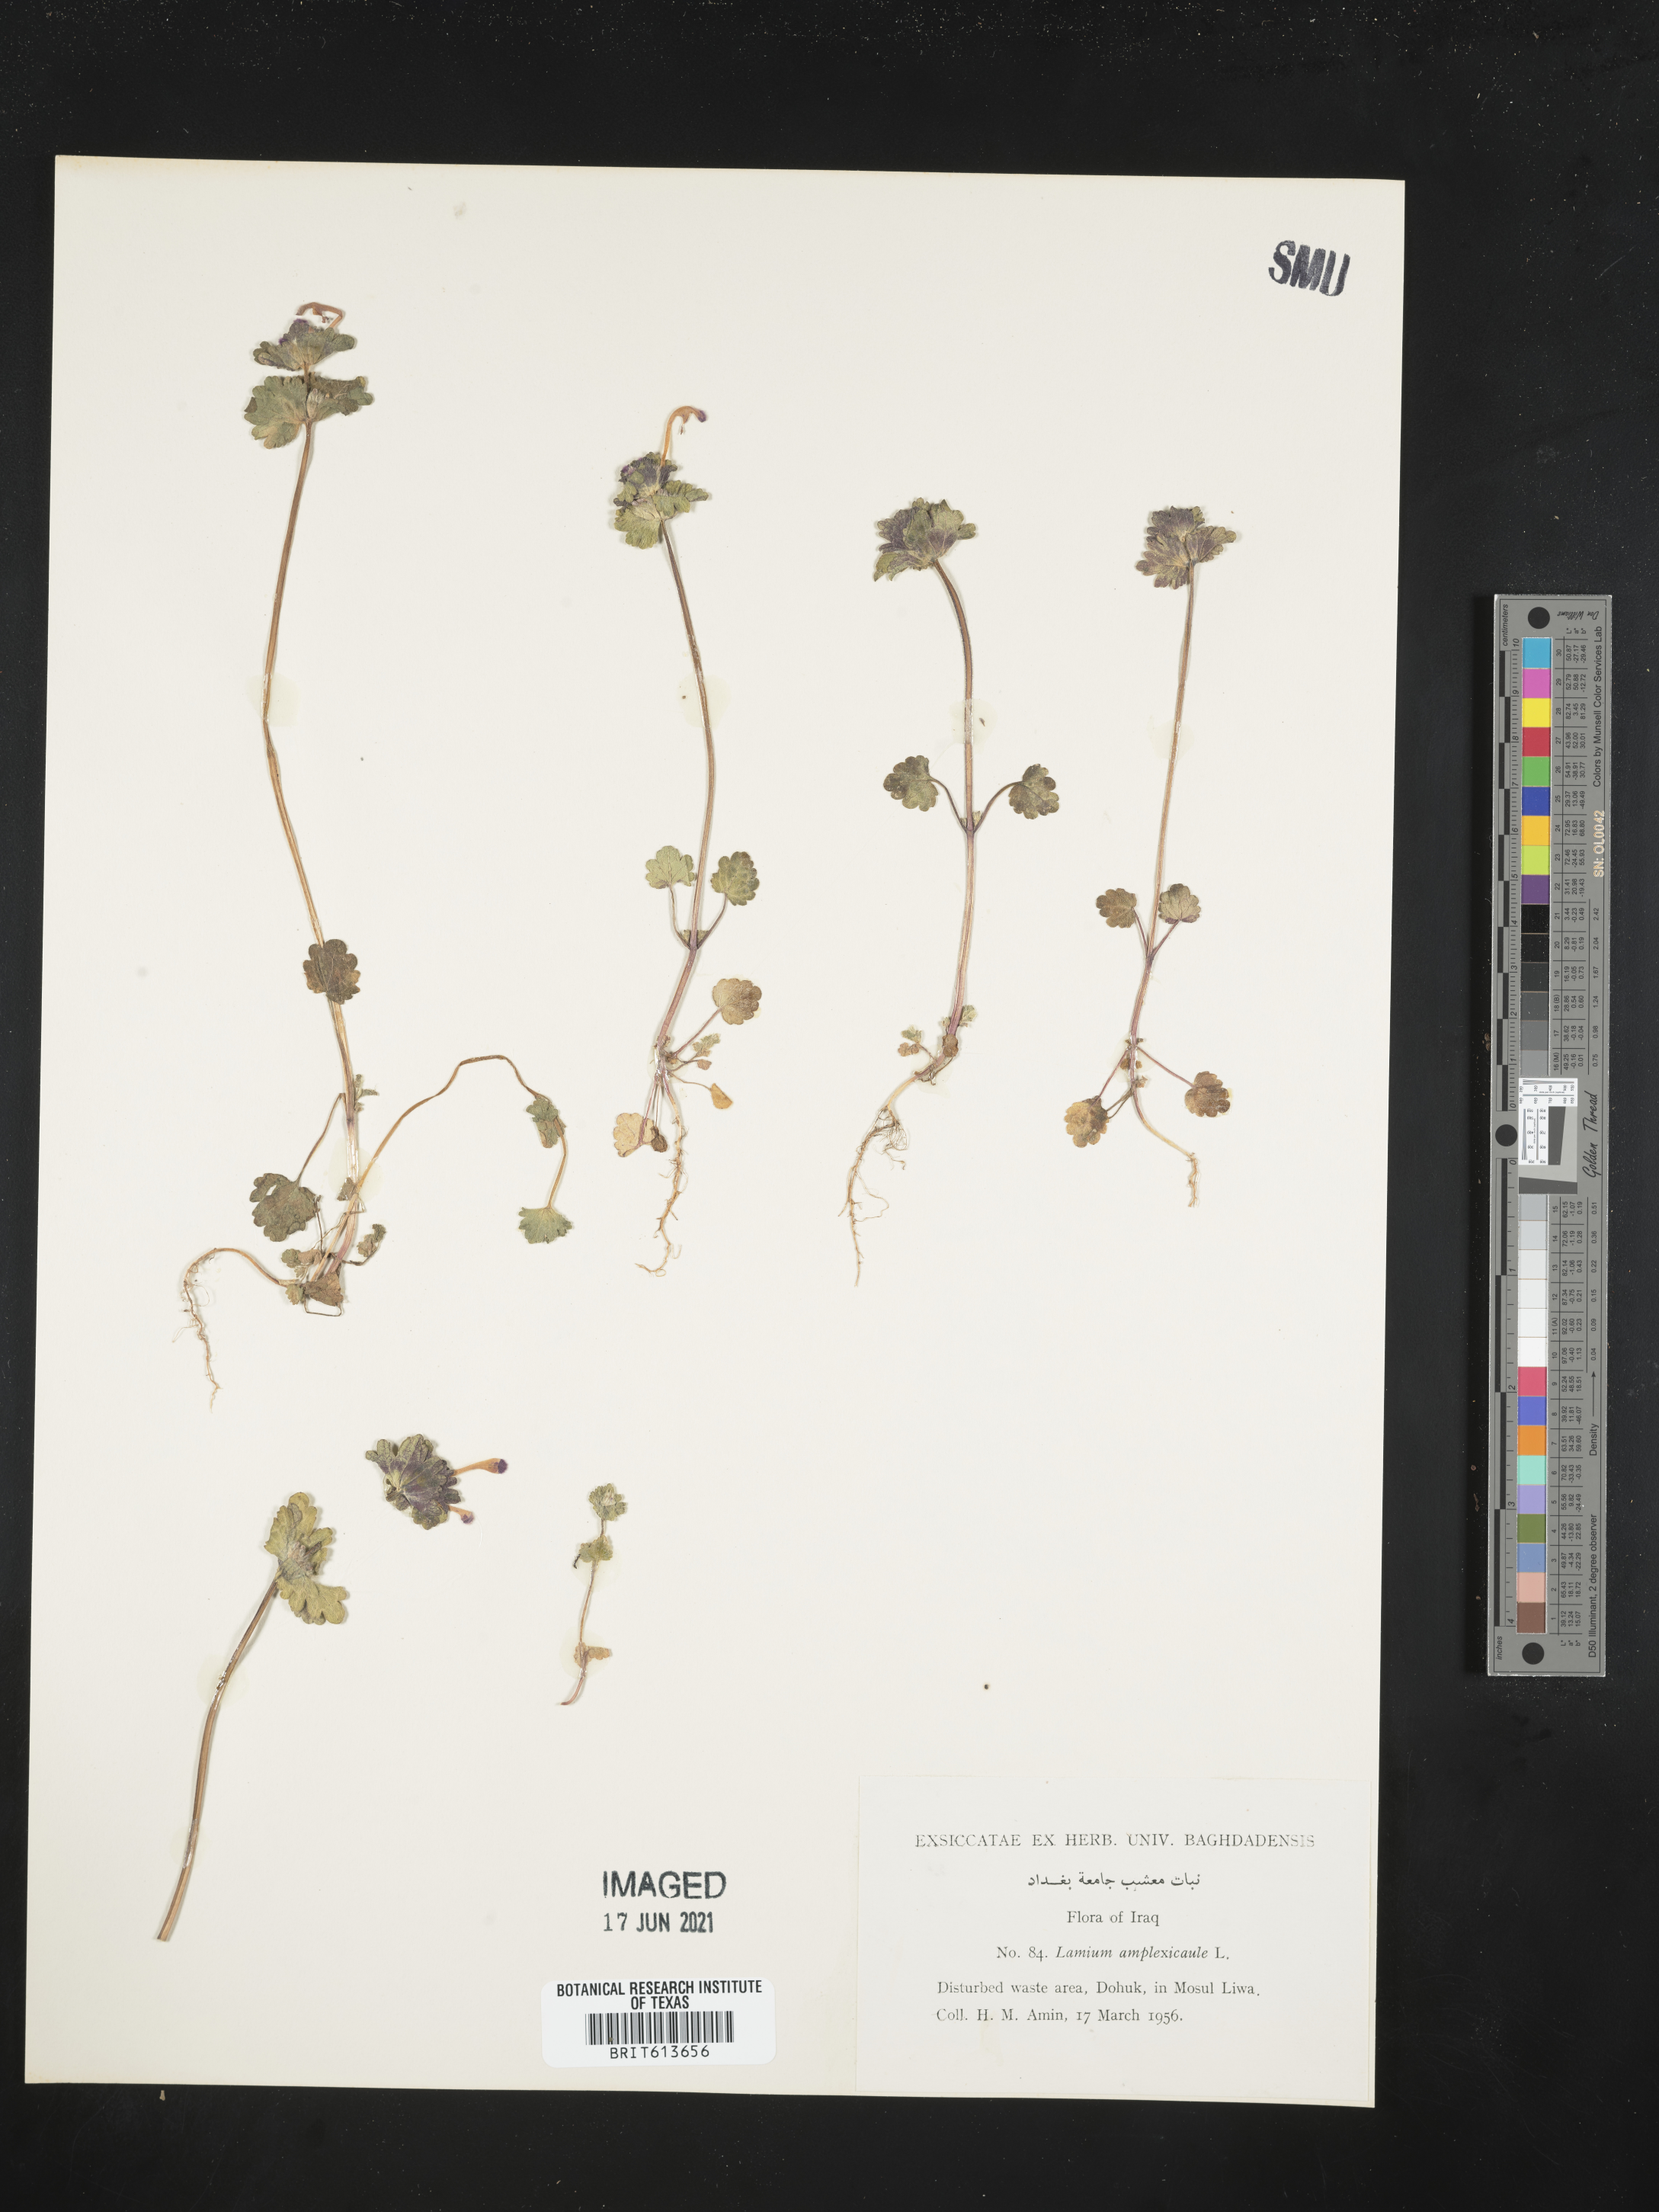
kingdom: Plantae
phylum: Tracheophyta
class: Magnoliopsida
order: Lamiales
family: Lamiaceae
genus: Lamium
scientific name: Lamium amplexicaule
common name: Henbit dead-nettle
